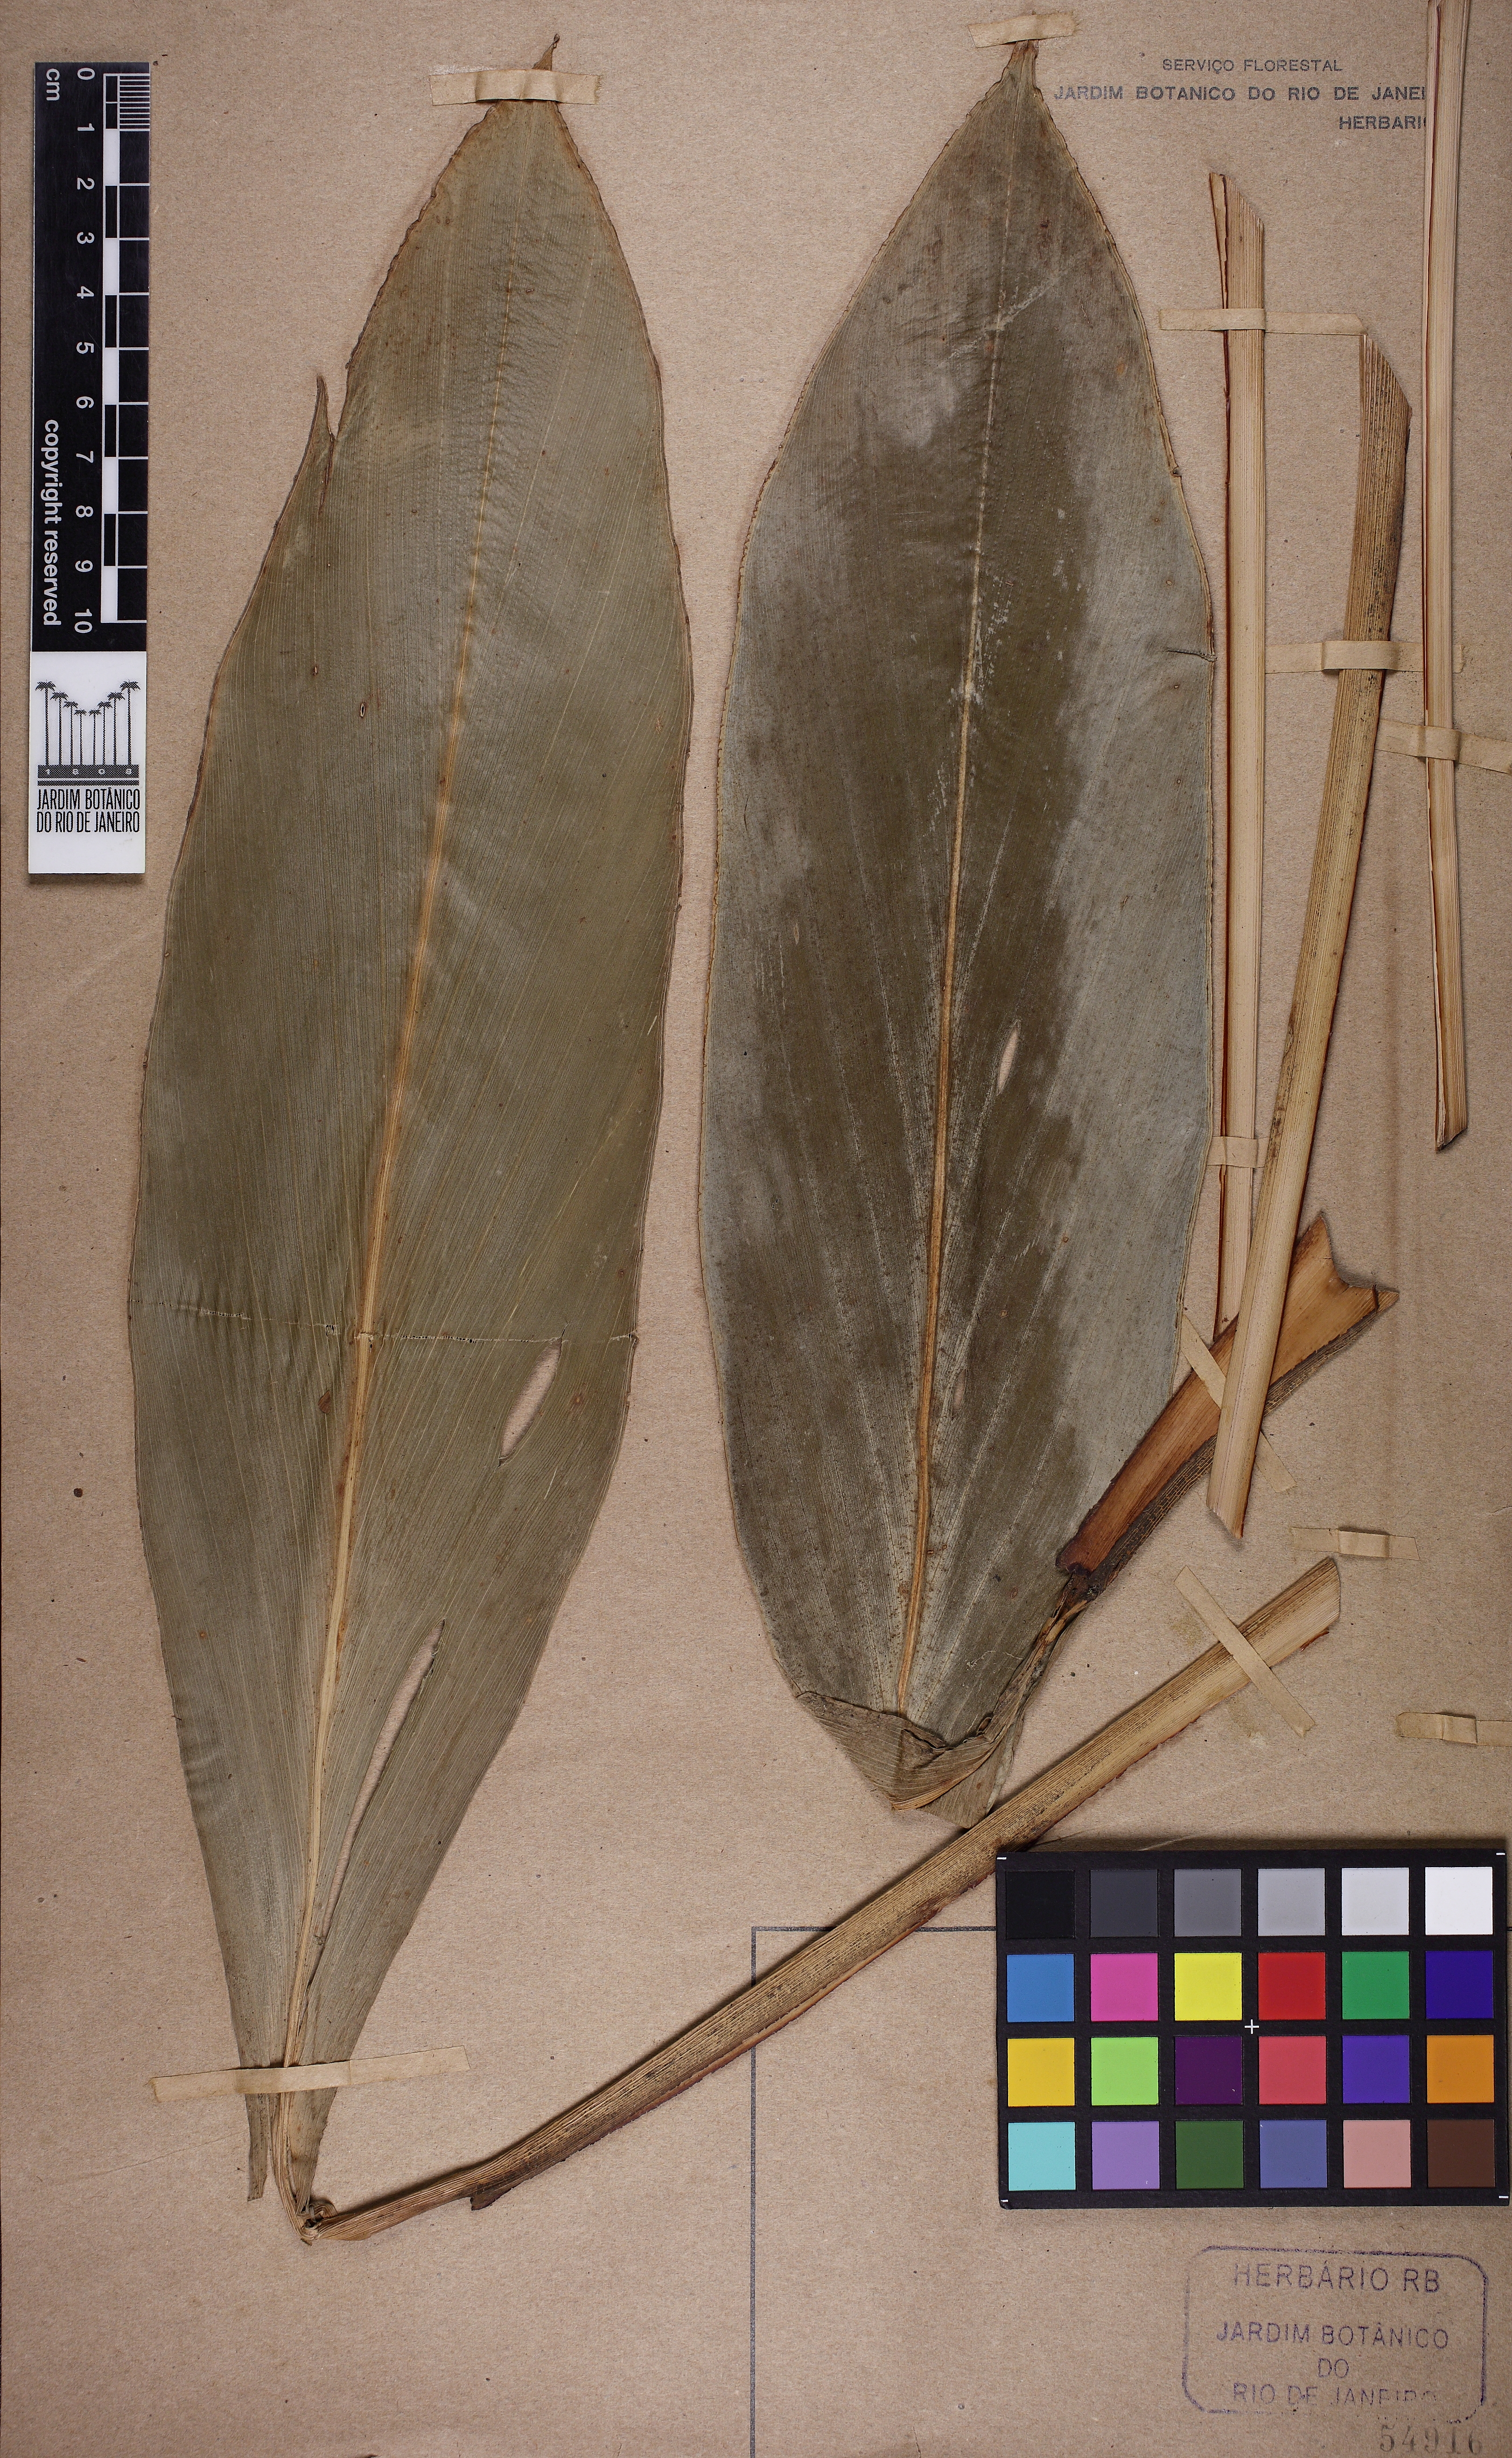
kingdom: Plantae
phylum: Tracheophyta
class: Liliopsida
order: Zingiberales
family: Zingiberaceae
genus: Renealmia
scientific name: Renealmia chrysotricha
